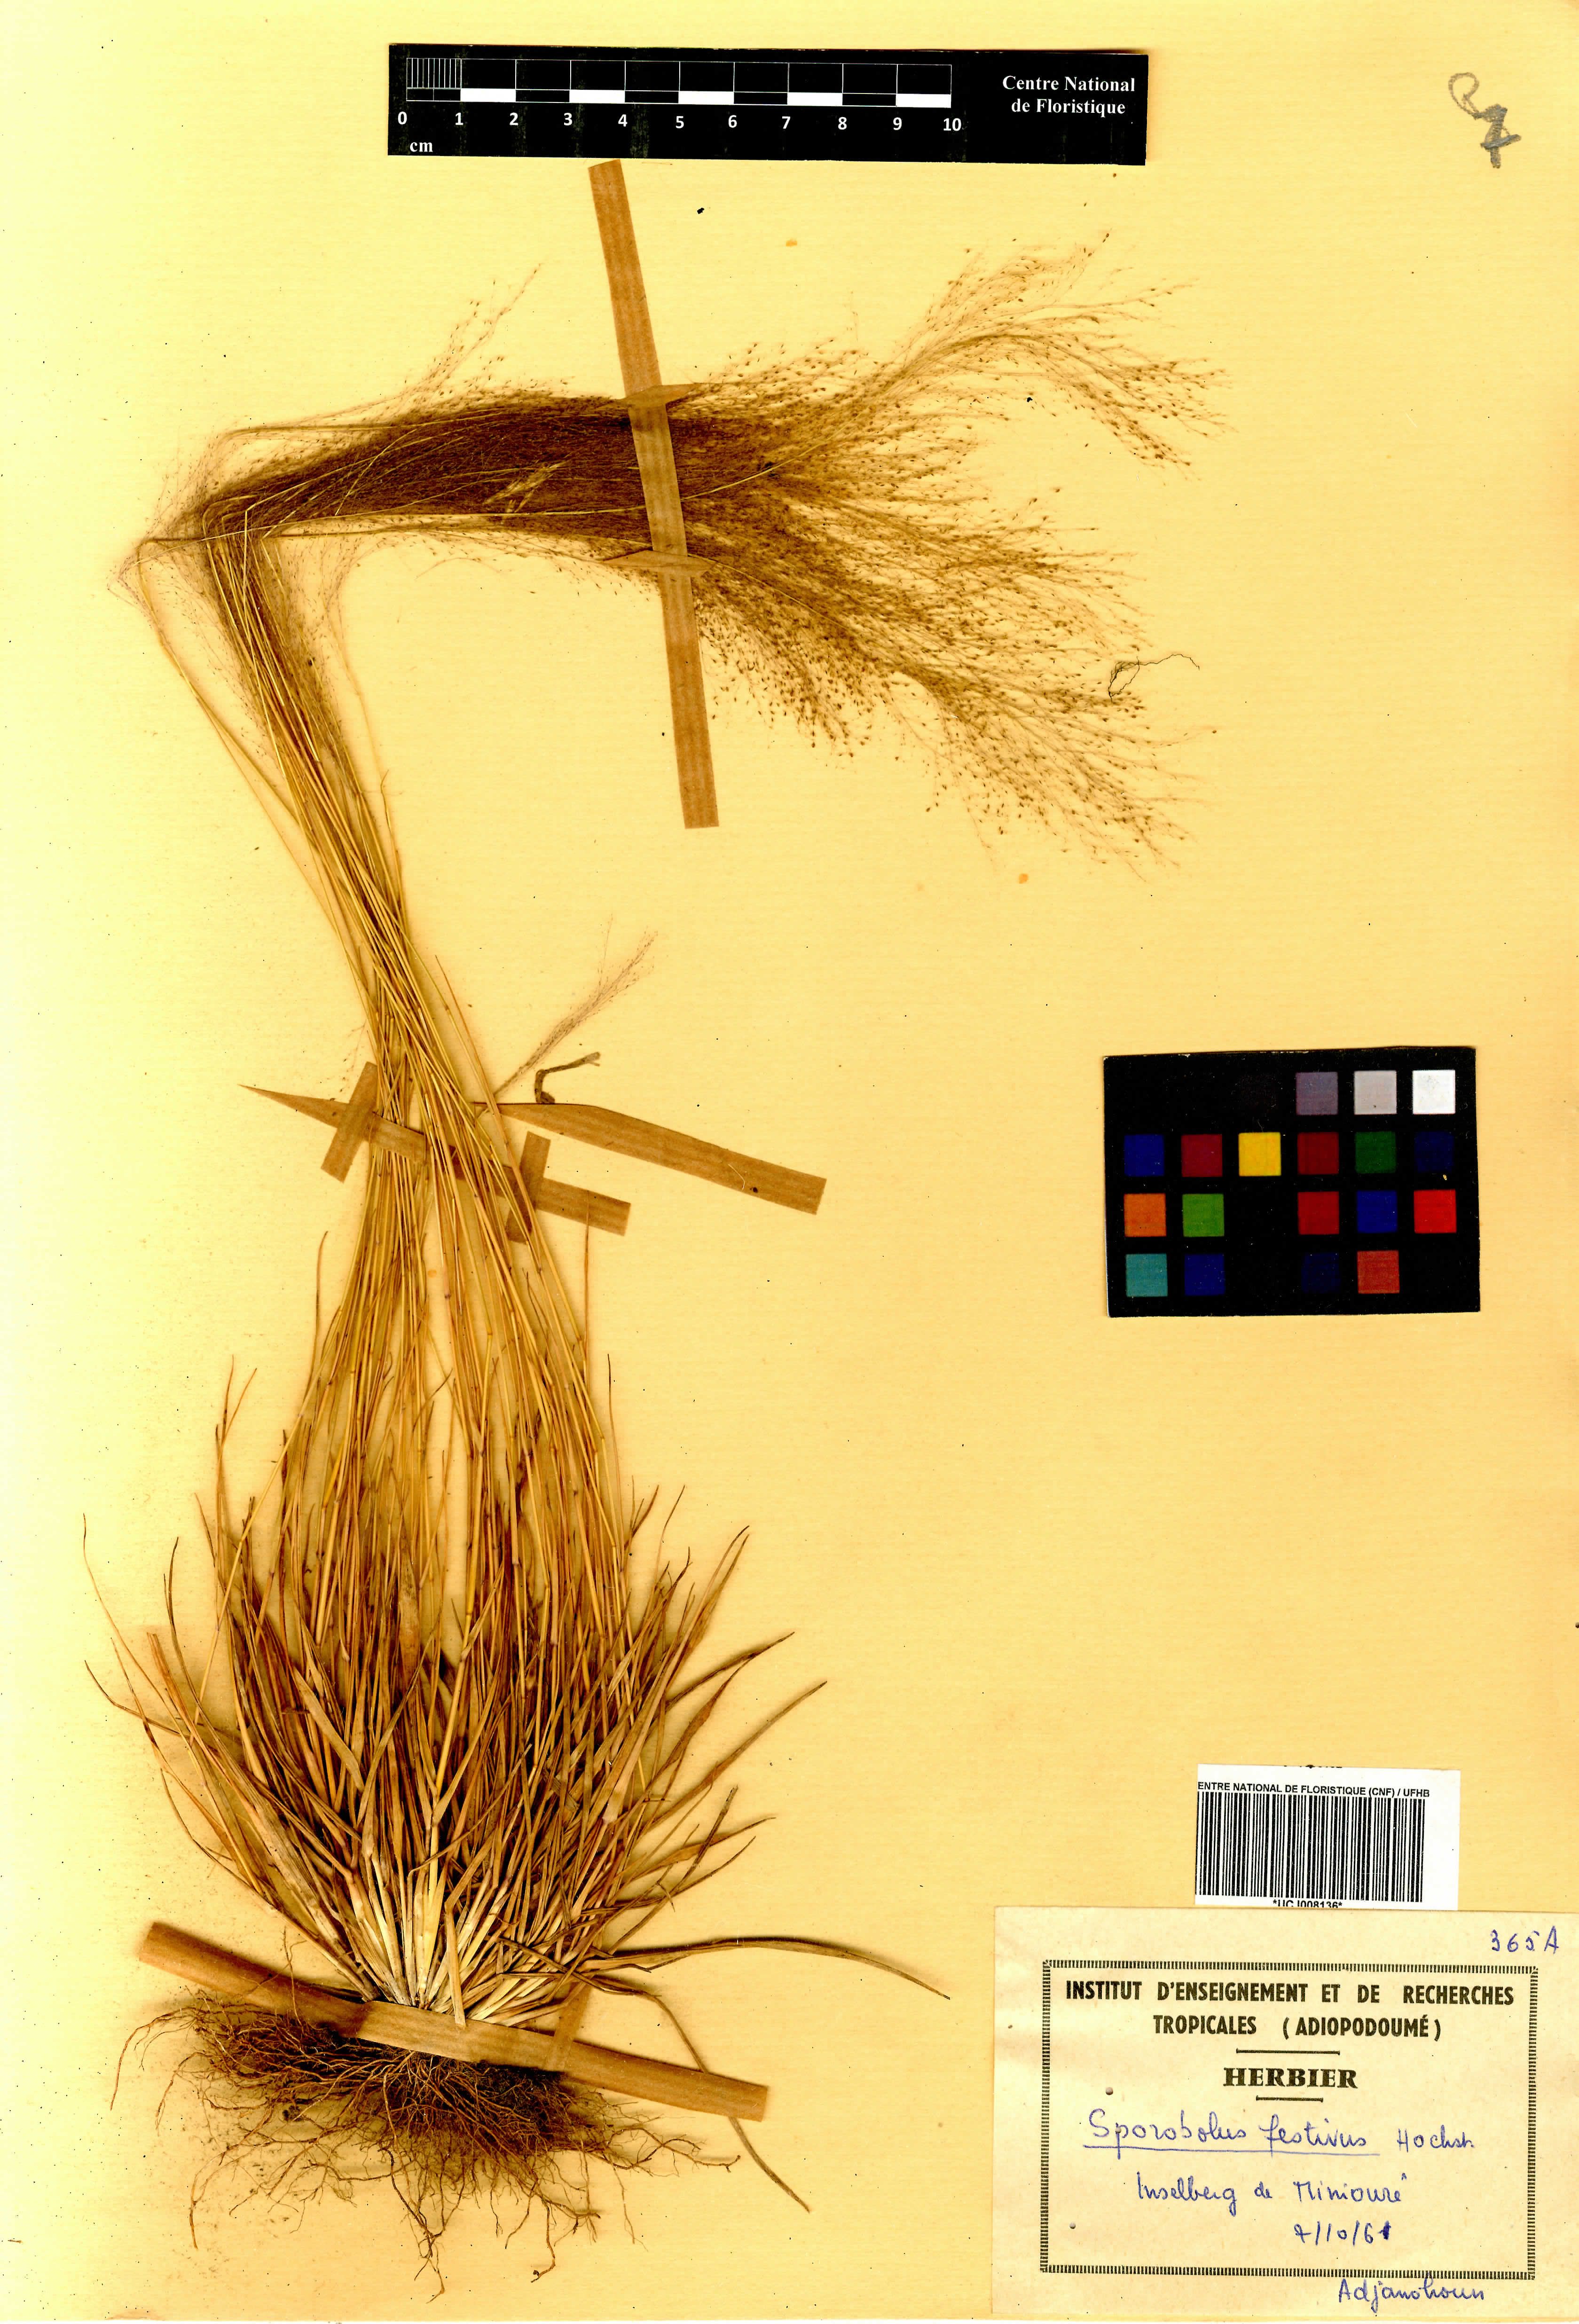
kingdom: Plantae
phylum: Tracheophyta
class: Liliopsida
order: Poales
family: Poaceae
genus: Sporobolus
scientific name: Sporobolus festivus
